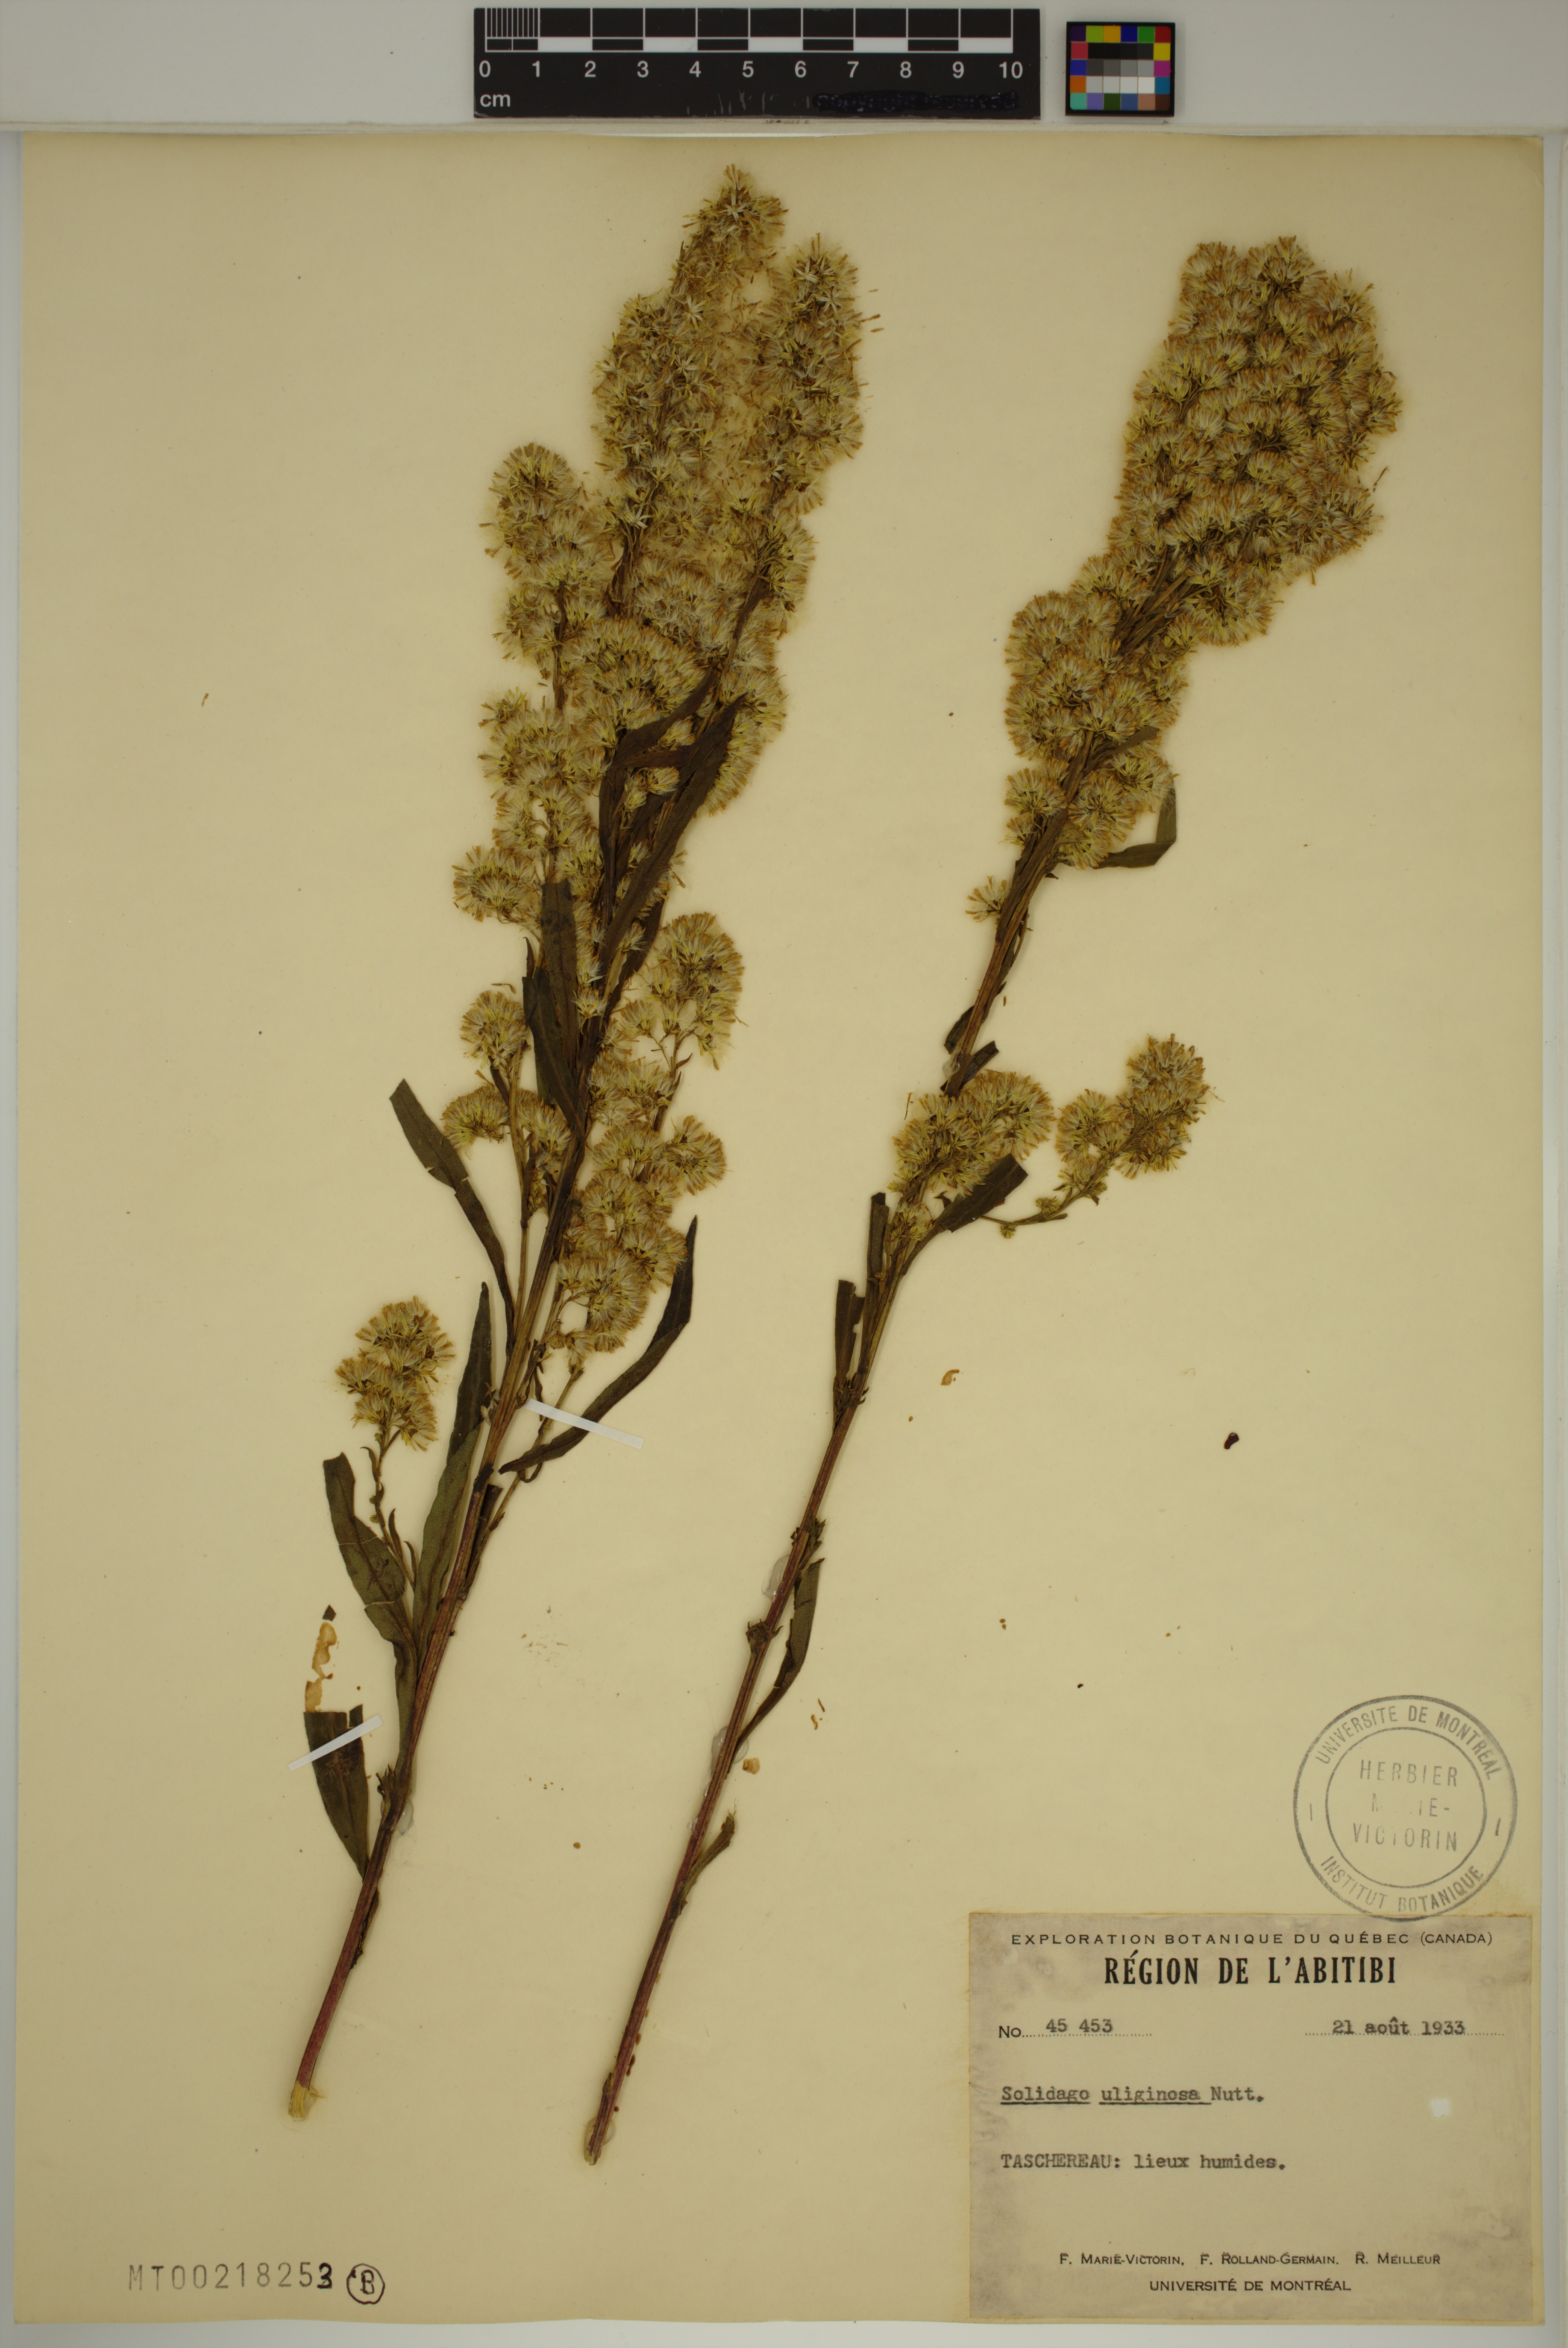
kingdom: Plantae
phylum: Tracheophyta
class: Magnoliopsida
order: Asterales
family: Asteraceae
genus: Solidago
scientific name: Solidago uliginosa
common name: Bog goldenrod
